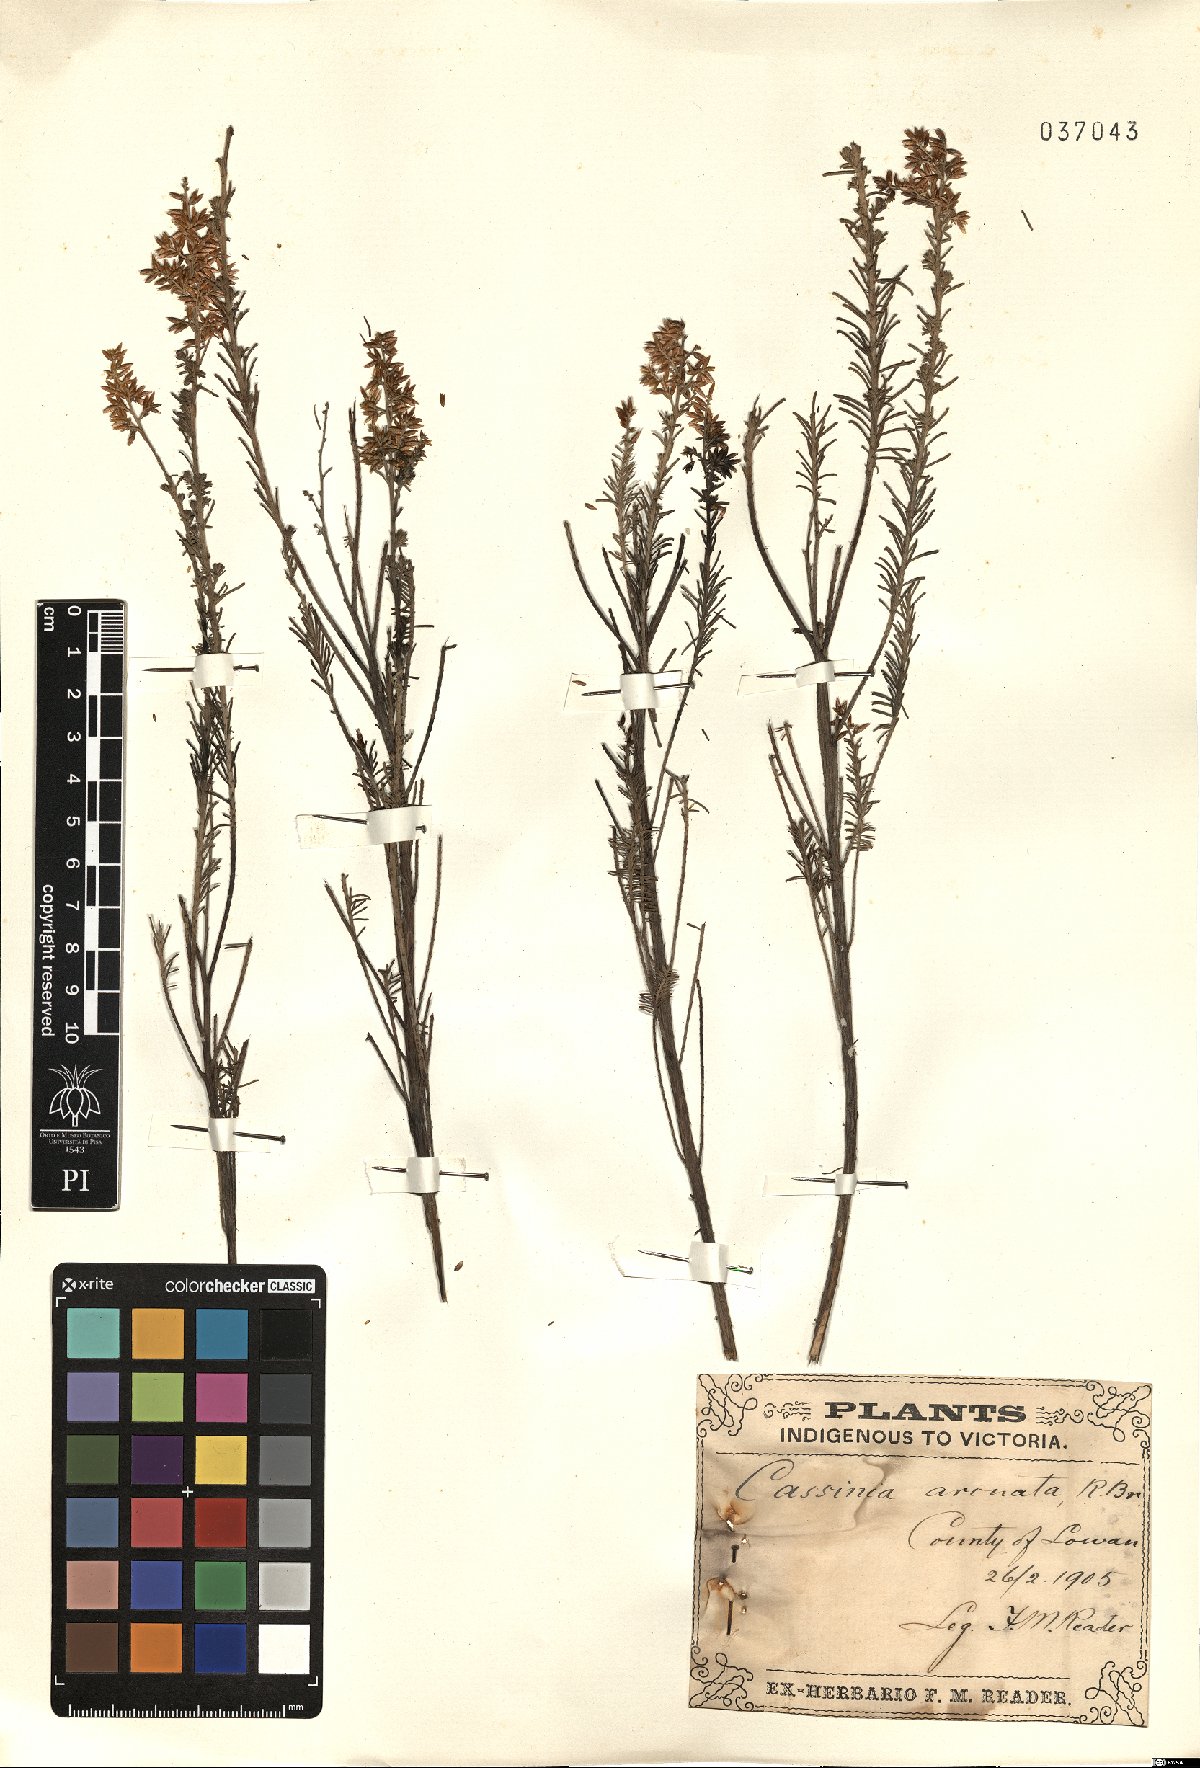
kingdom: Plantae
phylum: Tracheophyta
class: Magnoliopsida
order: Asterales
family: Asteraceae
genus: Cassinia
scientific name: Cassinia arcuata
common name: Chineseshrub
